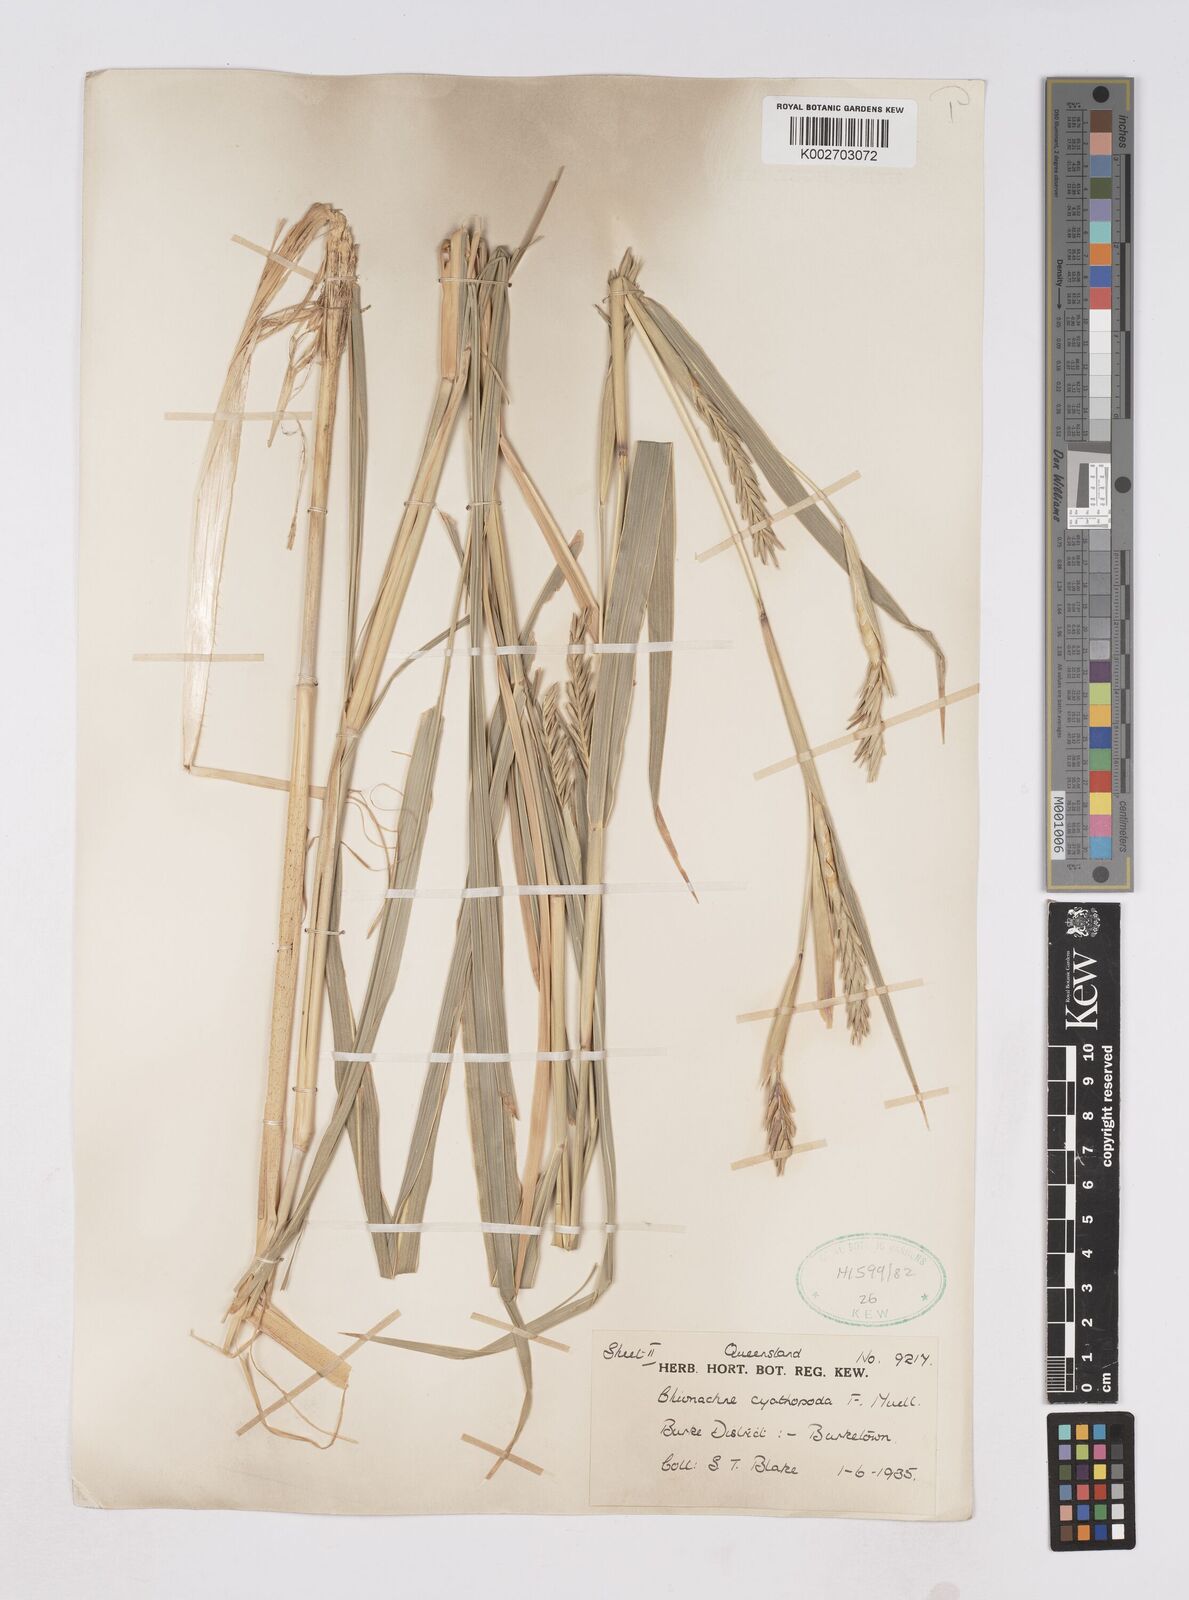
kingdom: Plantae
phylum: Tracheophyta
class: Liliopsida
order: Poales
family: Poaceae
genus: Polytoca
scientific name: Polytoca cyathopoda
